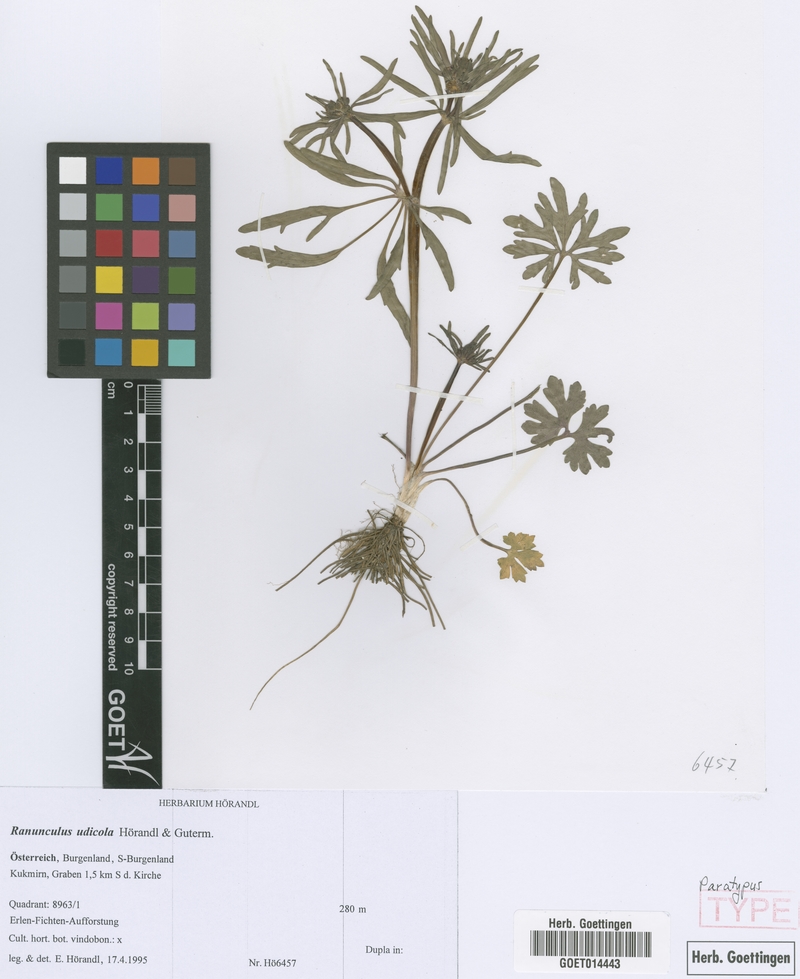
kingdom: Plantae
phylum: Tracheophyta
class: Magnoliopsida
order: Ranunculales
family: Ranunculaceae
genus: Ranunculus
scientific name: Ranunculus udicola
